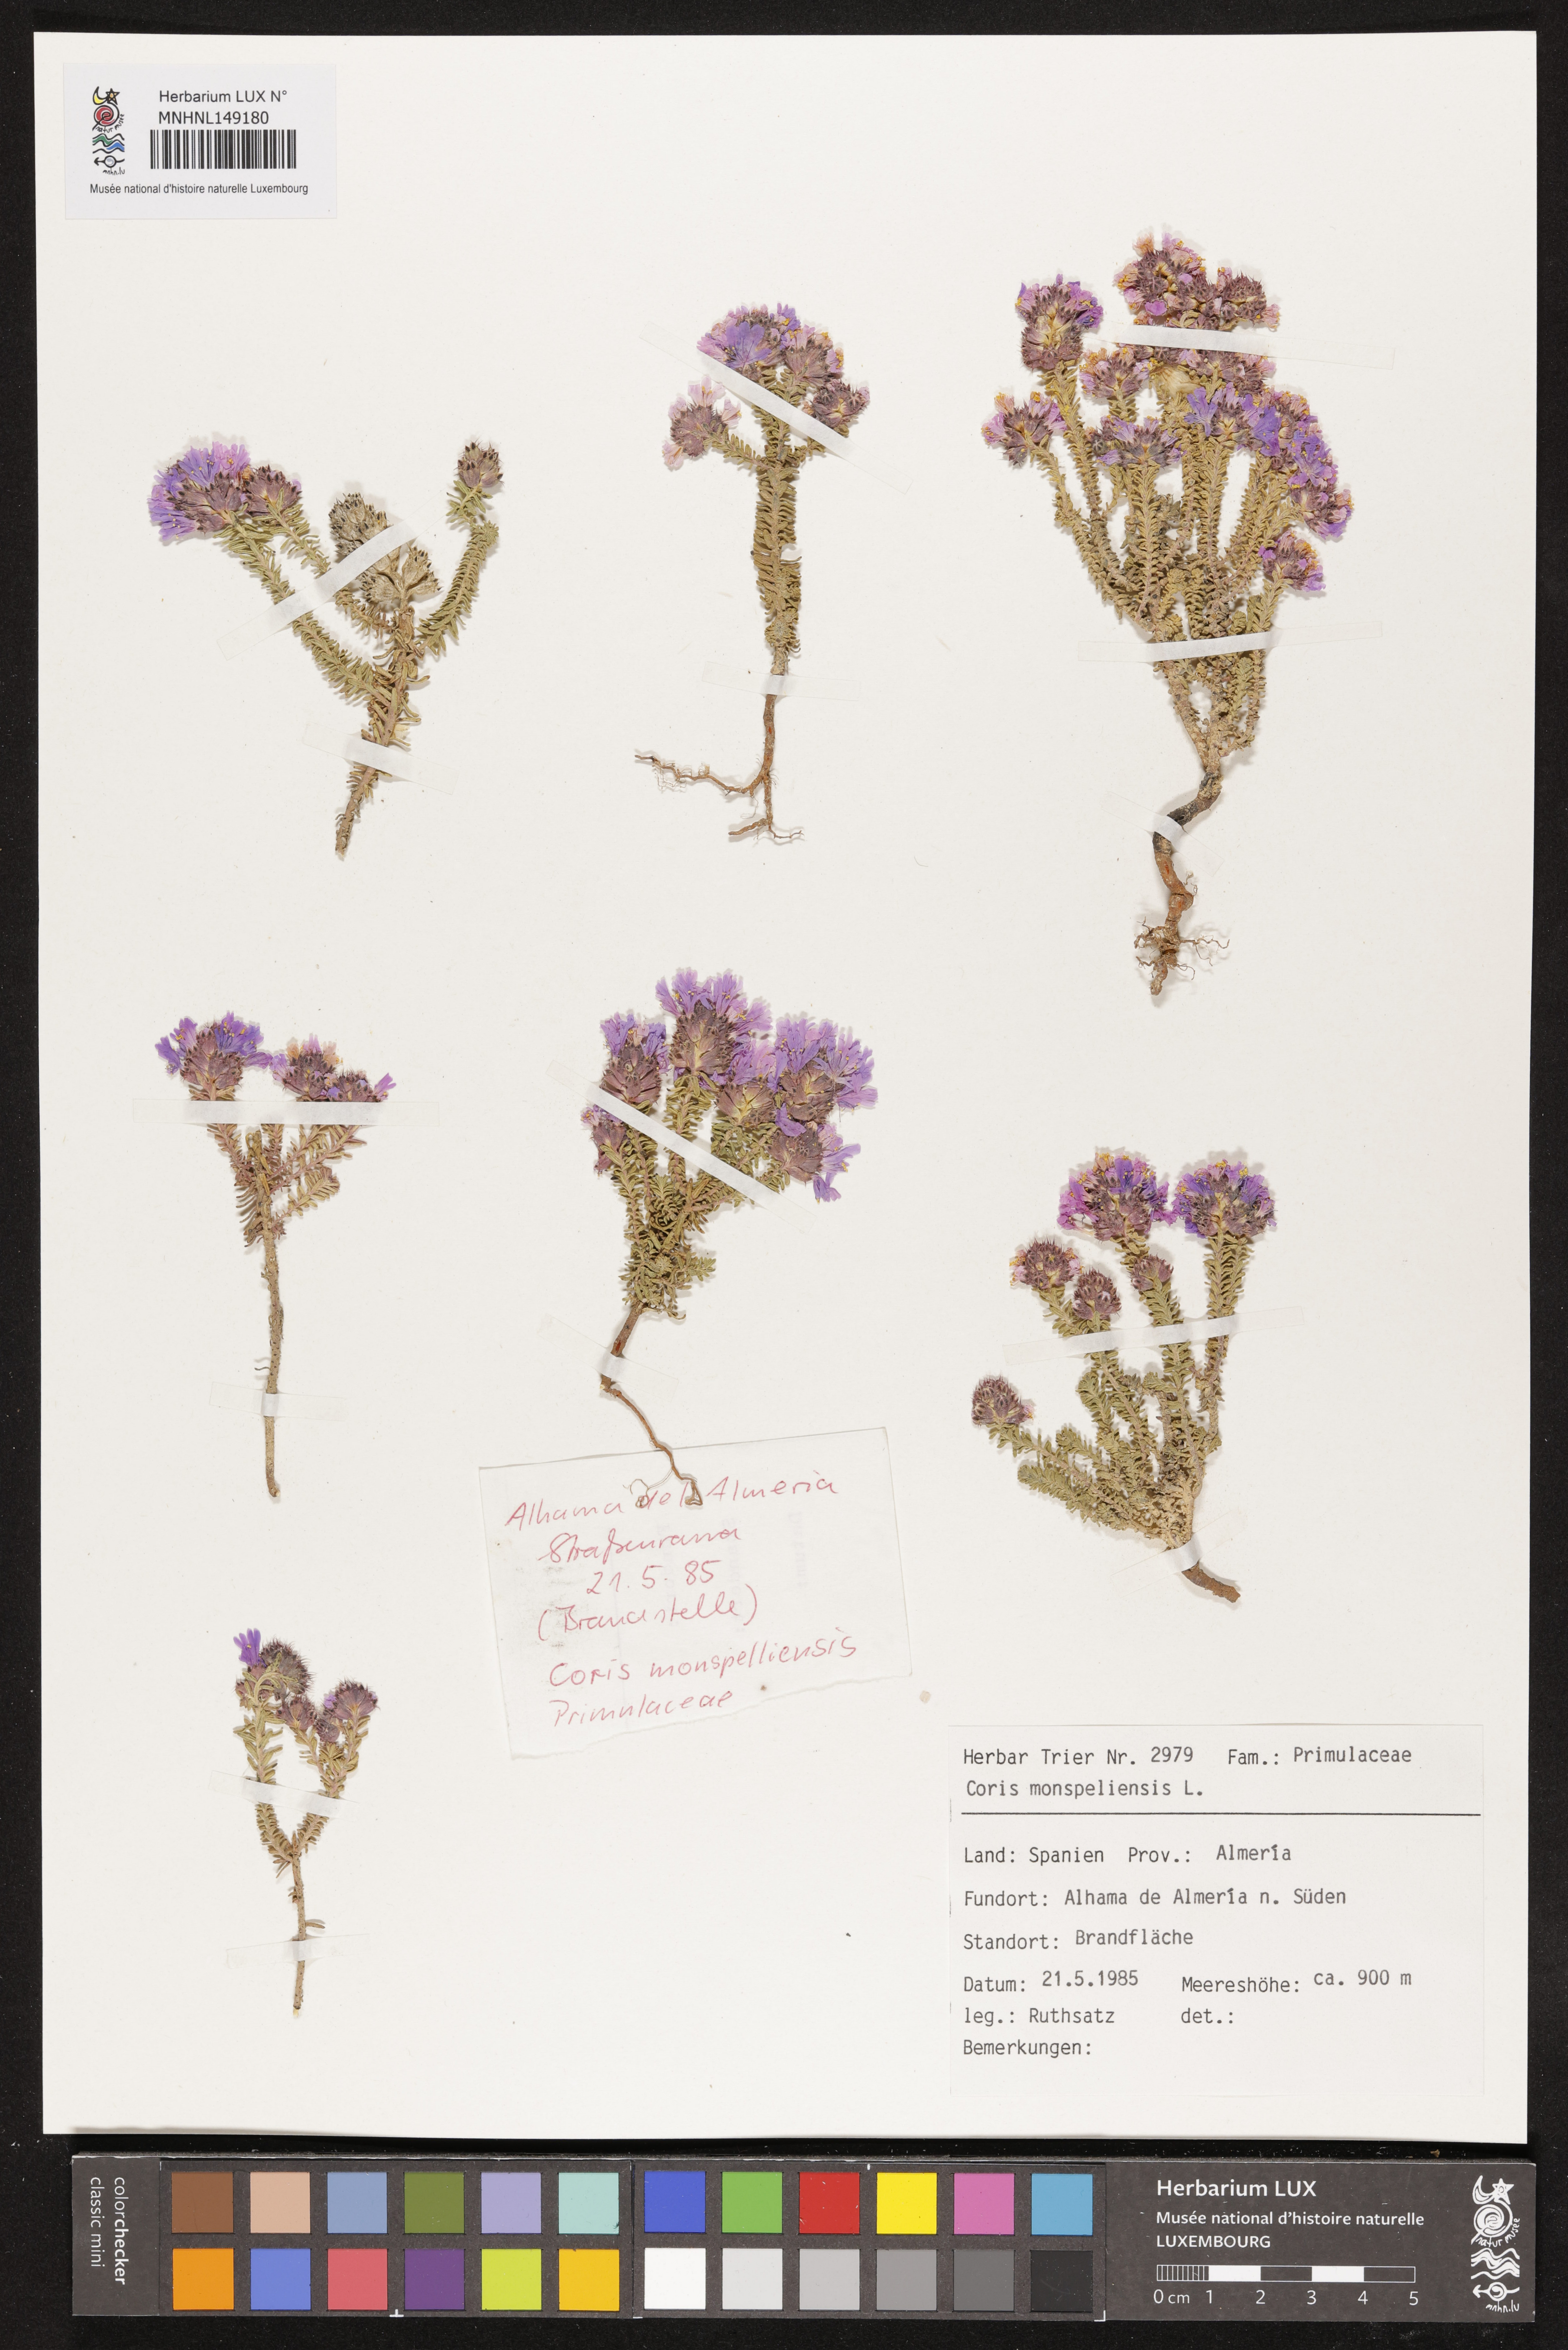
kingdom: Plantae
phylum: Tracheophyta
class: Magnoliopsida
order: Ericales
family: Primulaceae
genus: Coris
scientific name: Coris monspeliensis
